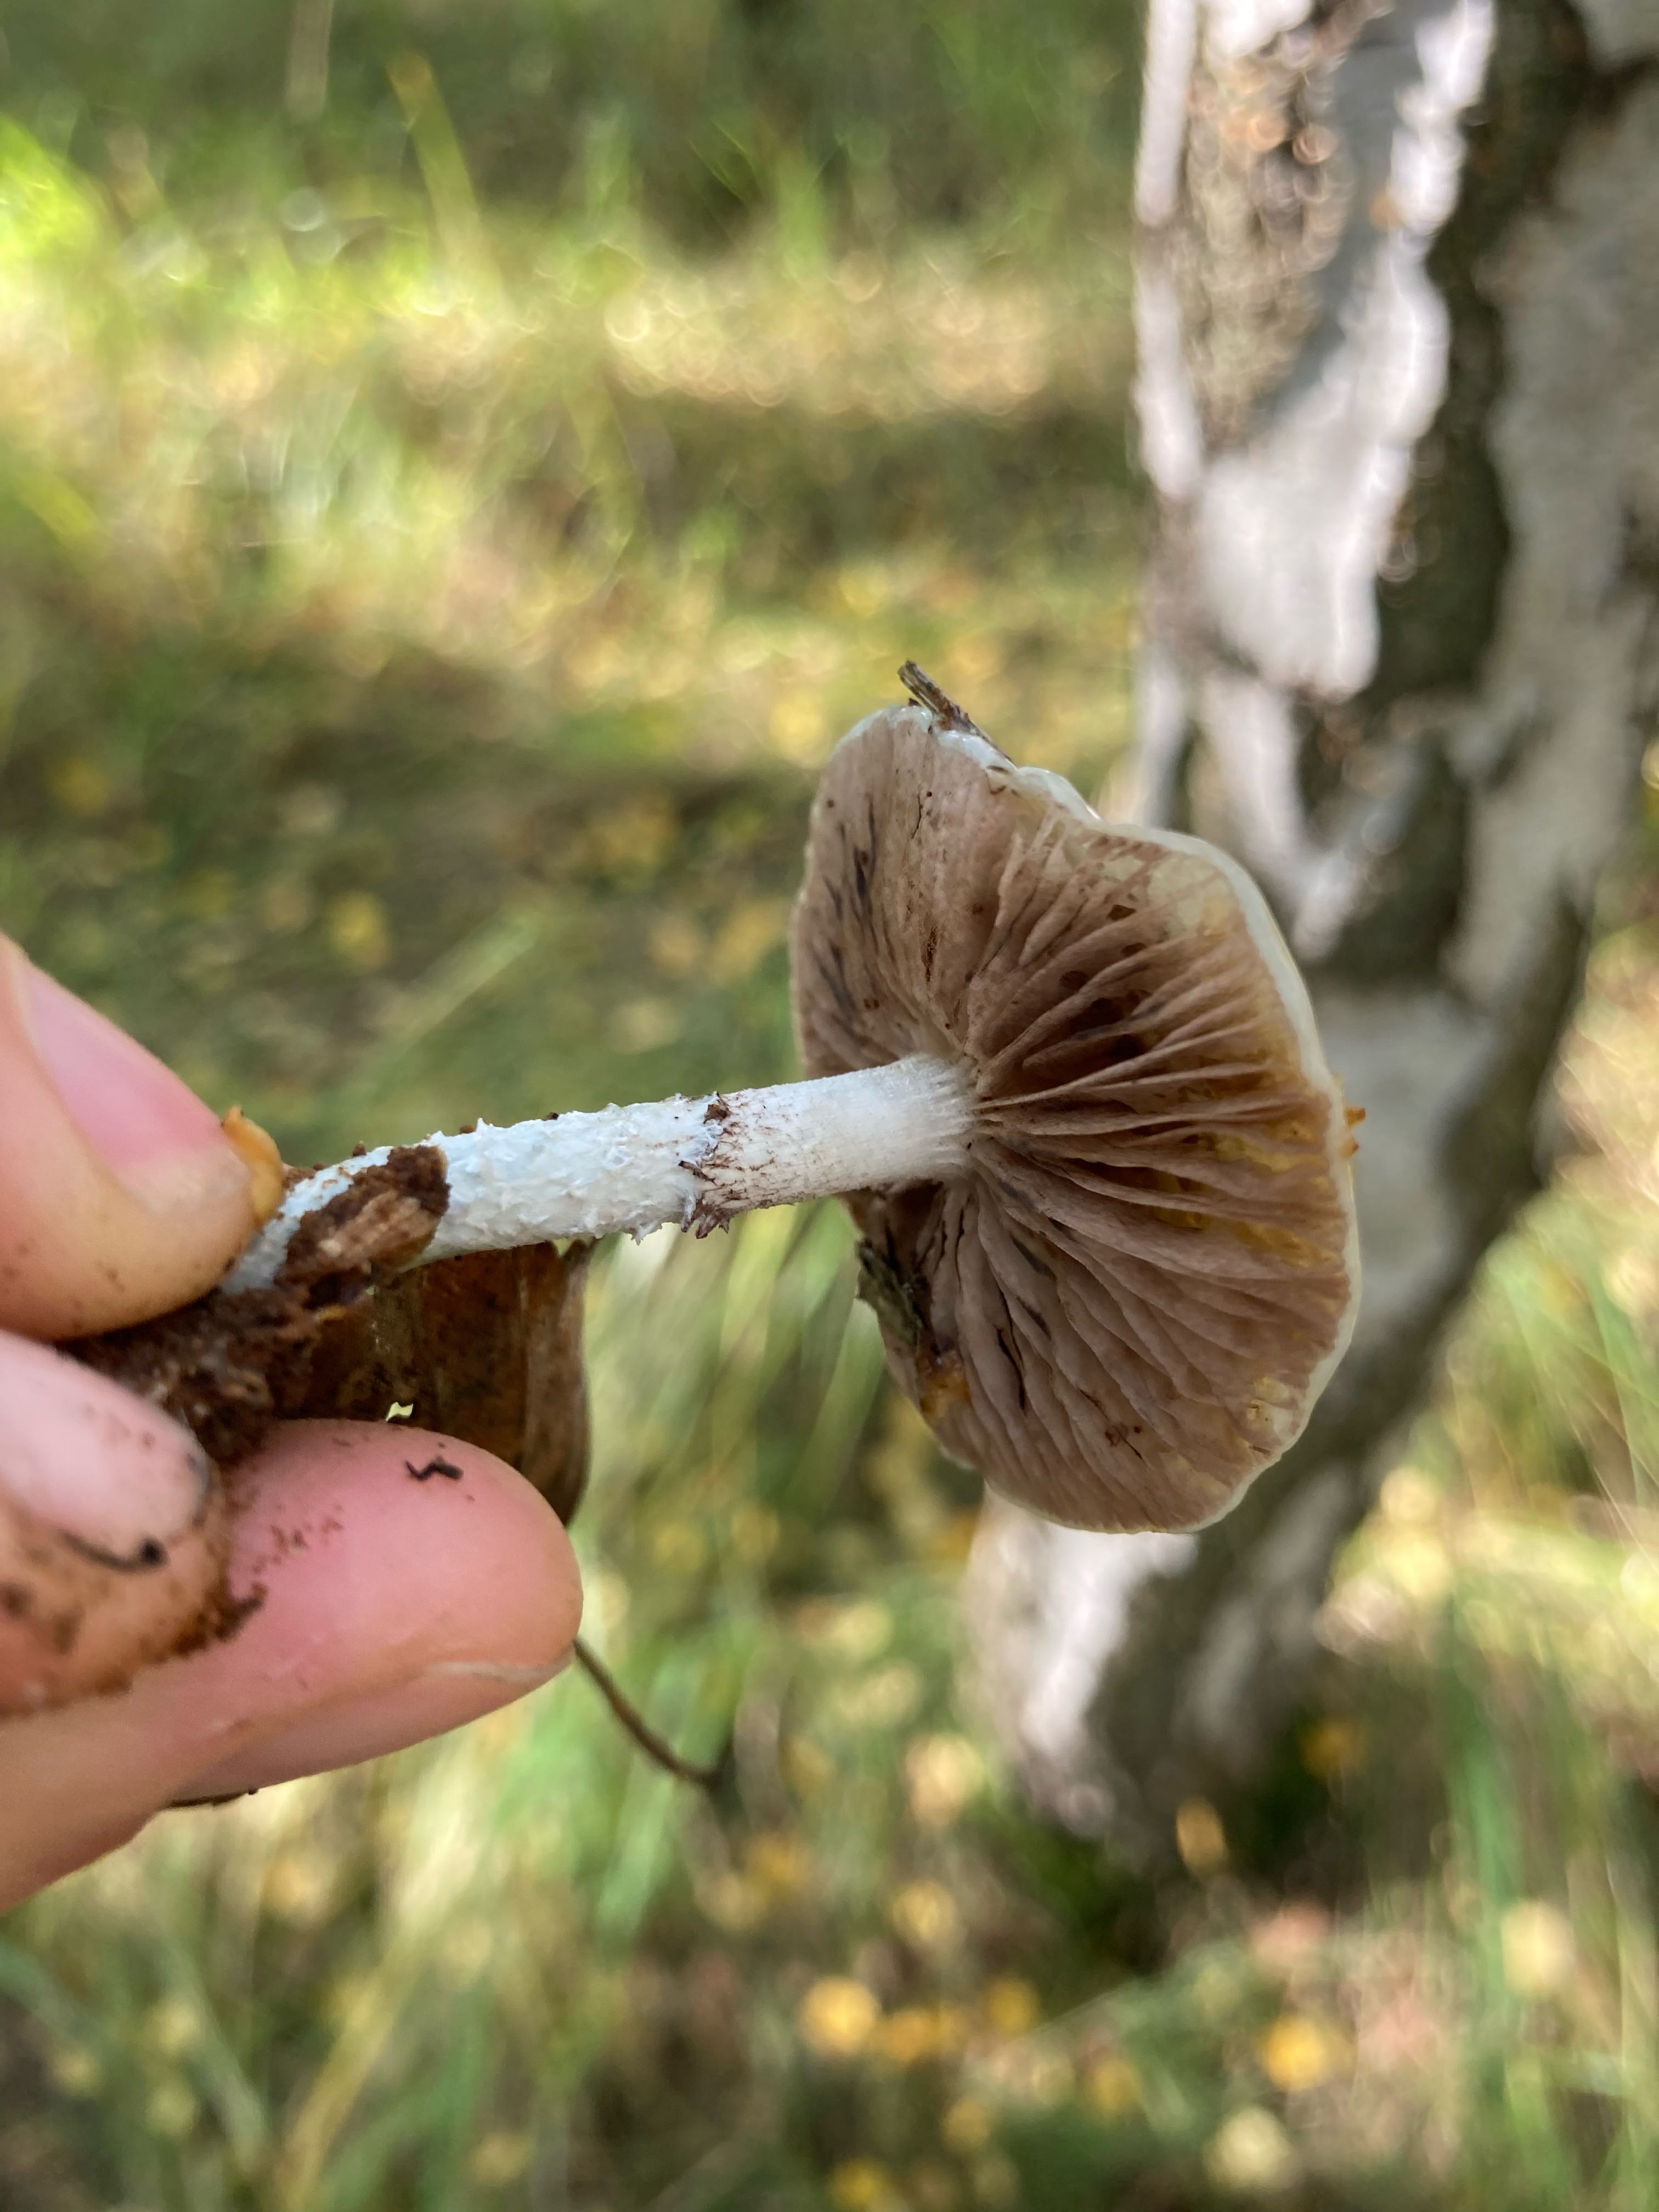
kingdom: Fungi
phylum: Basidiomycota
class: Agaricomycetes
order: Agaricales
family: Strophariaceae
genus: Stropharia
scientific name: Stropharia cyanea
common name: blågrøn bredblad
